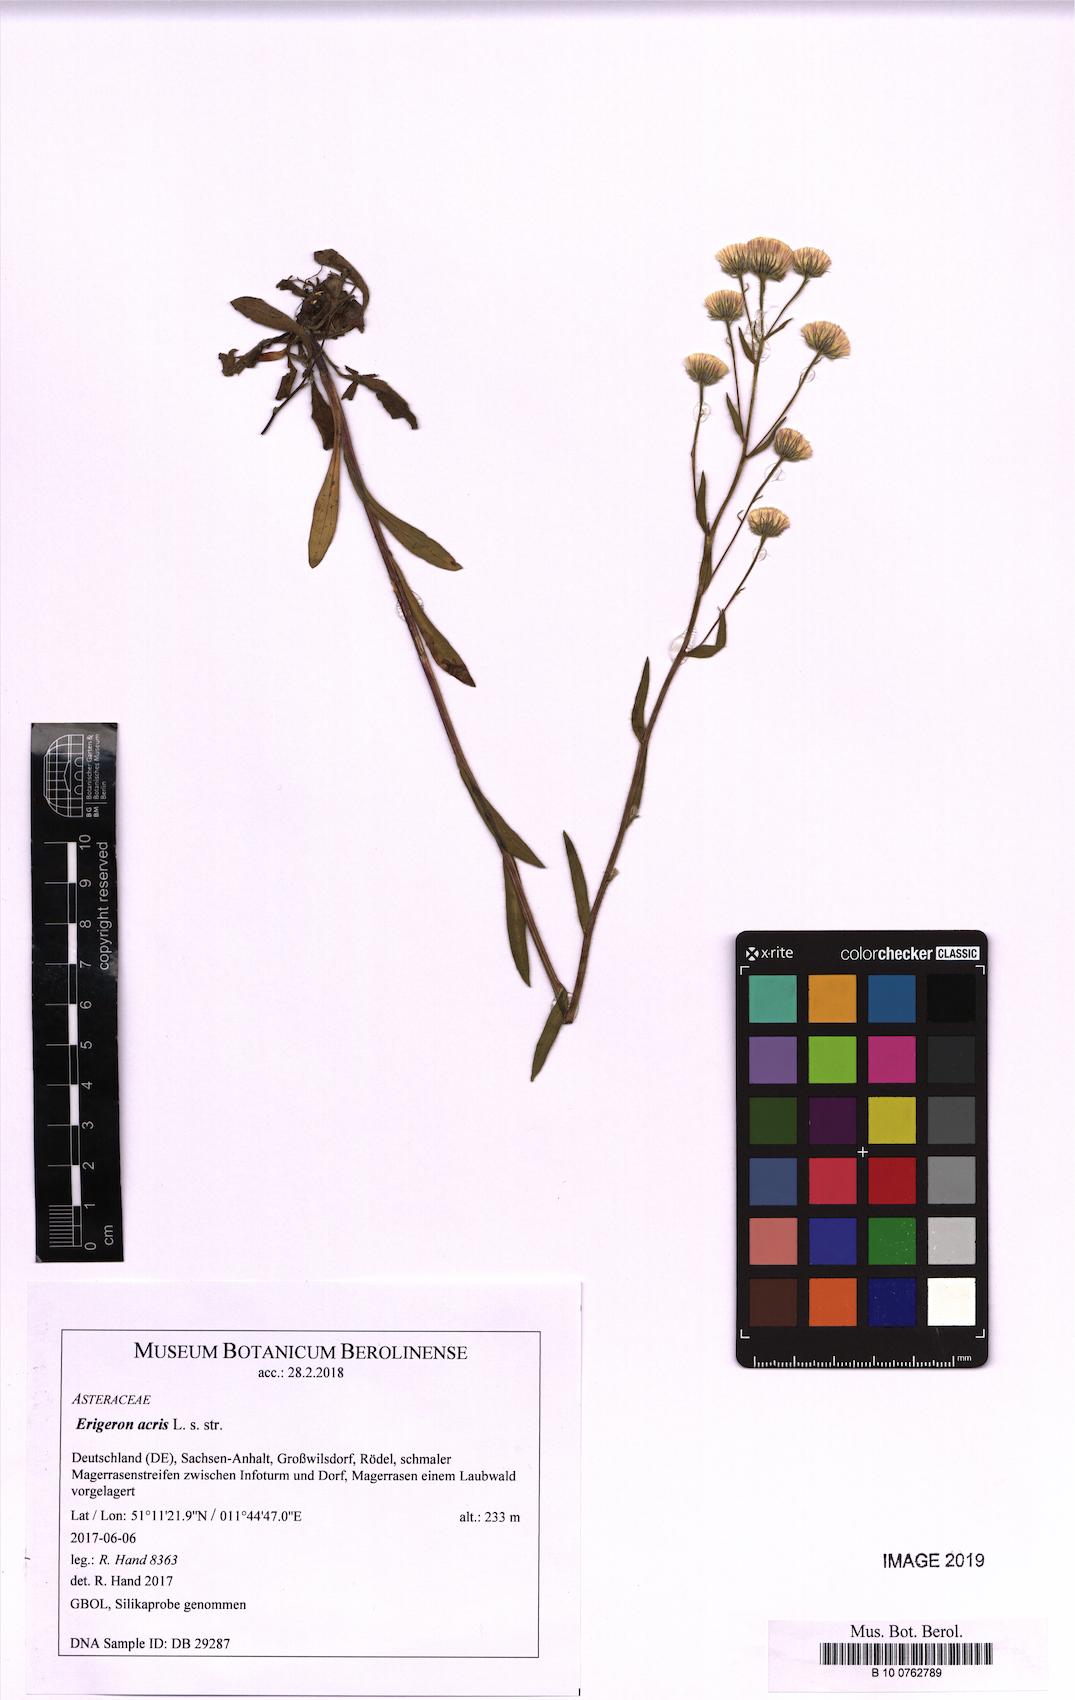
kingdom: Plantae
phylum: Tracheophyta
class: Magnoliopsida
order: Asterales
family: Asteraceae
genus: Erigeron
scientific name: Erigeron acris
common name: Blue fleabane
